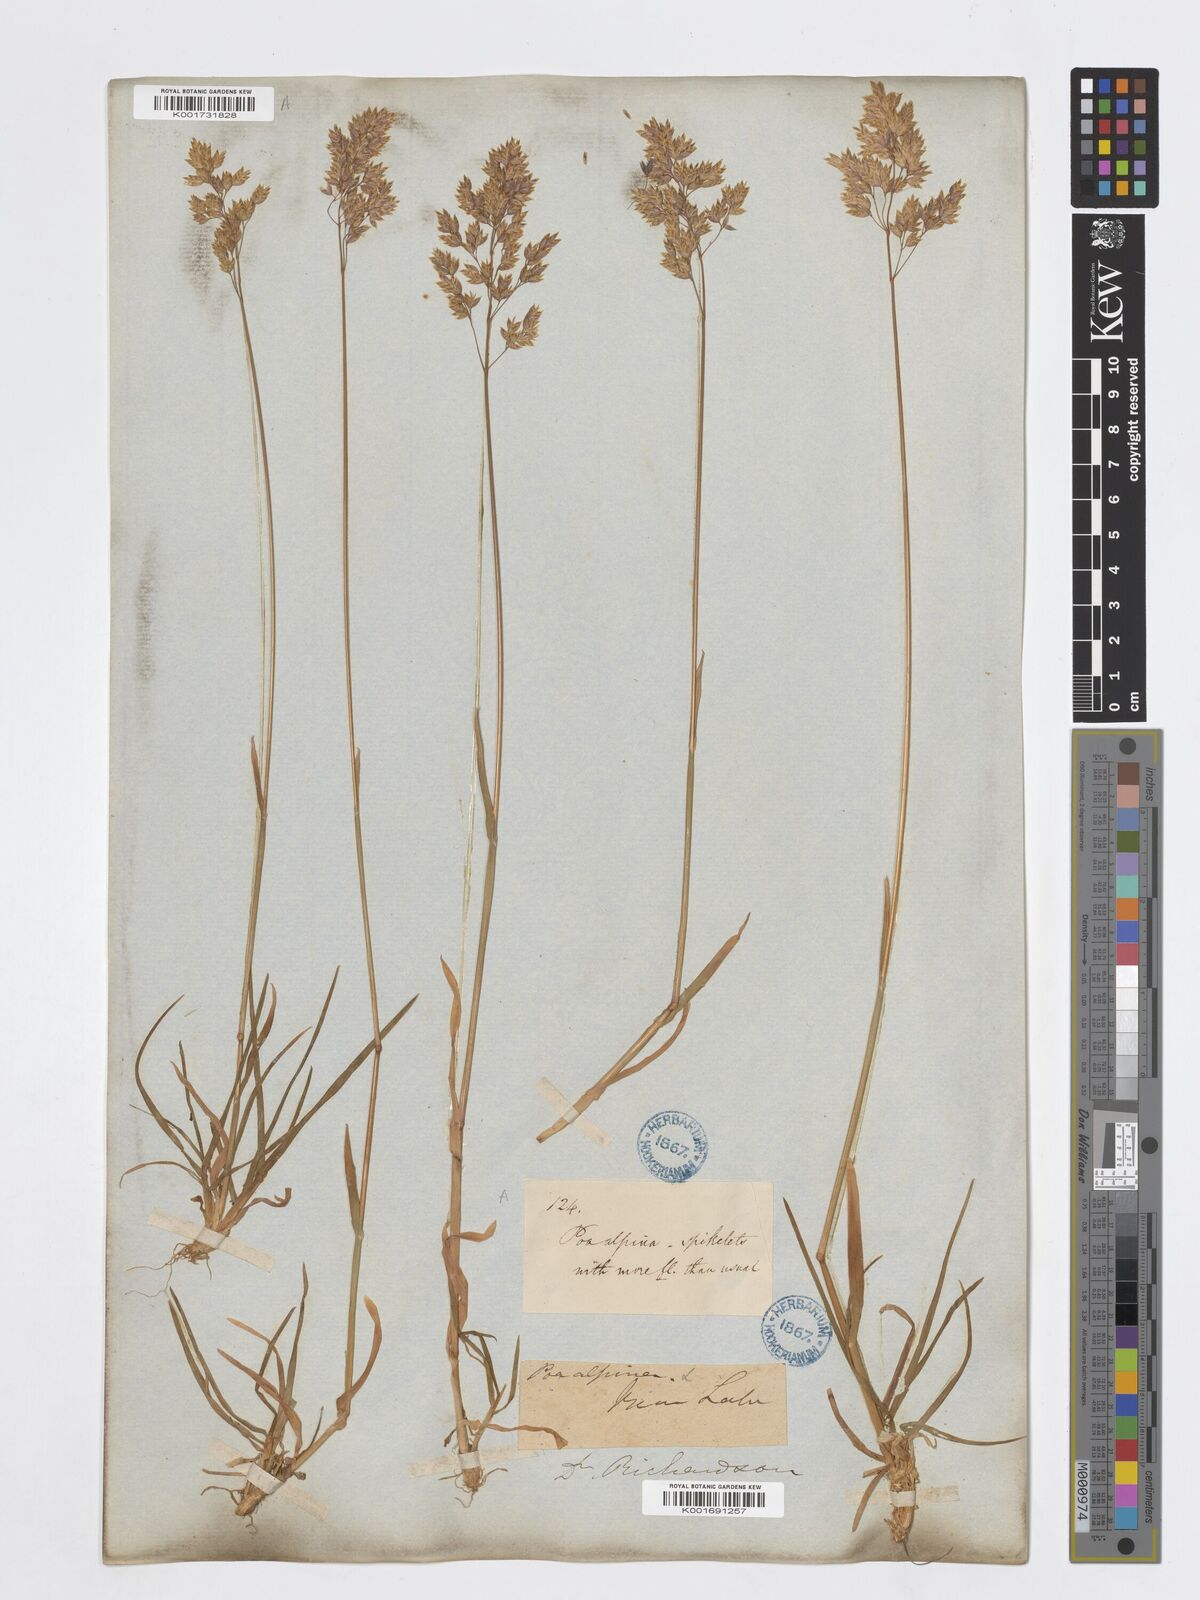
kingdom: Plantae
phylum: Tracheophyta
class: Liliopsida
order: Poales
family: Poaceae
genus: Poa
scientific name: Poa alpina
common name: Alpine bluegrass
